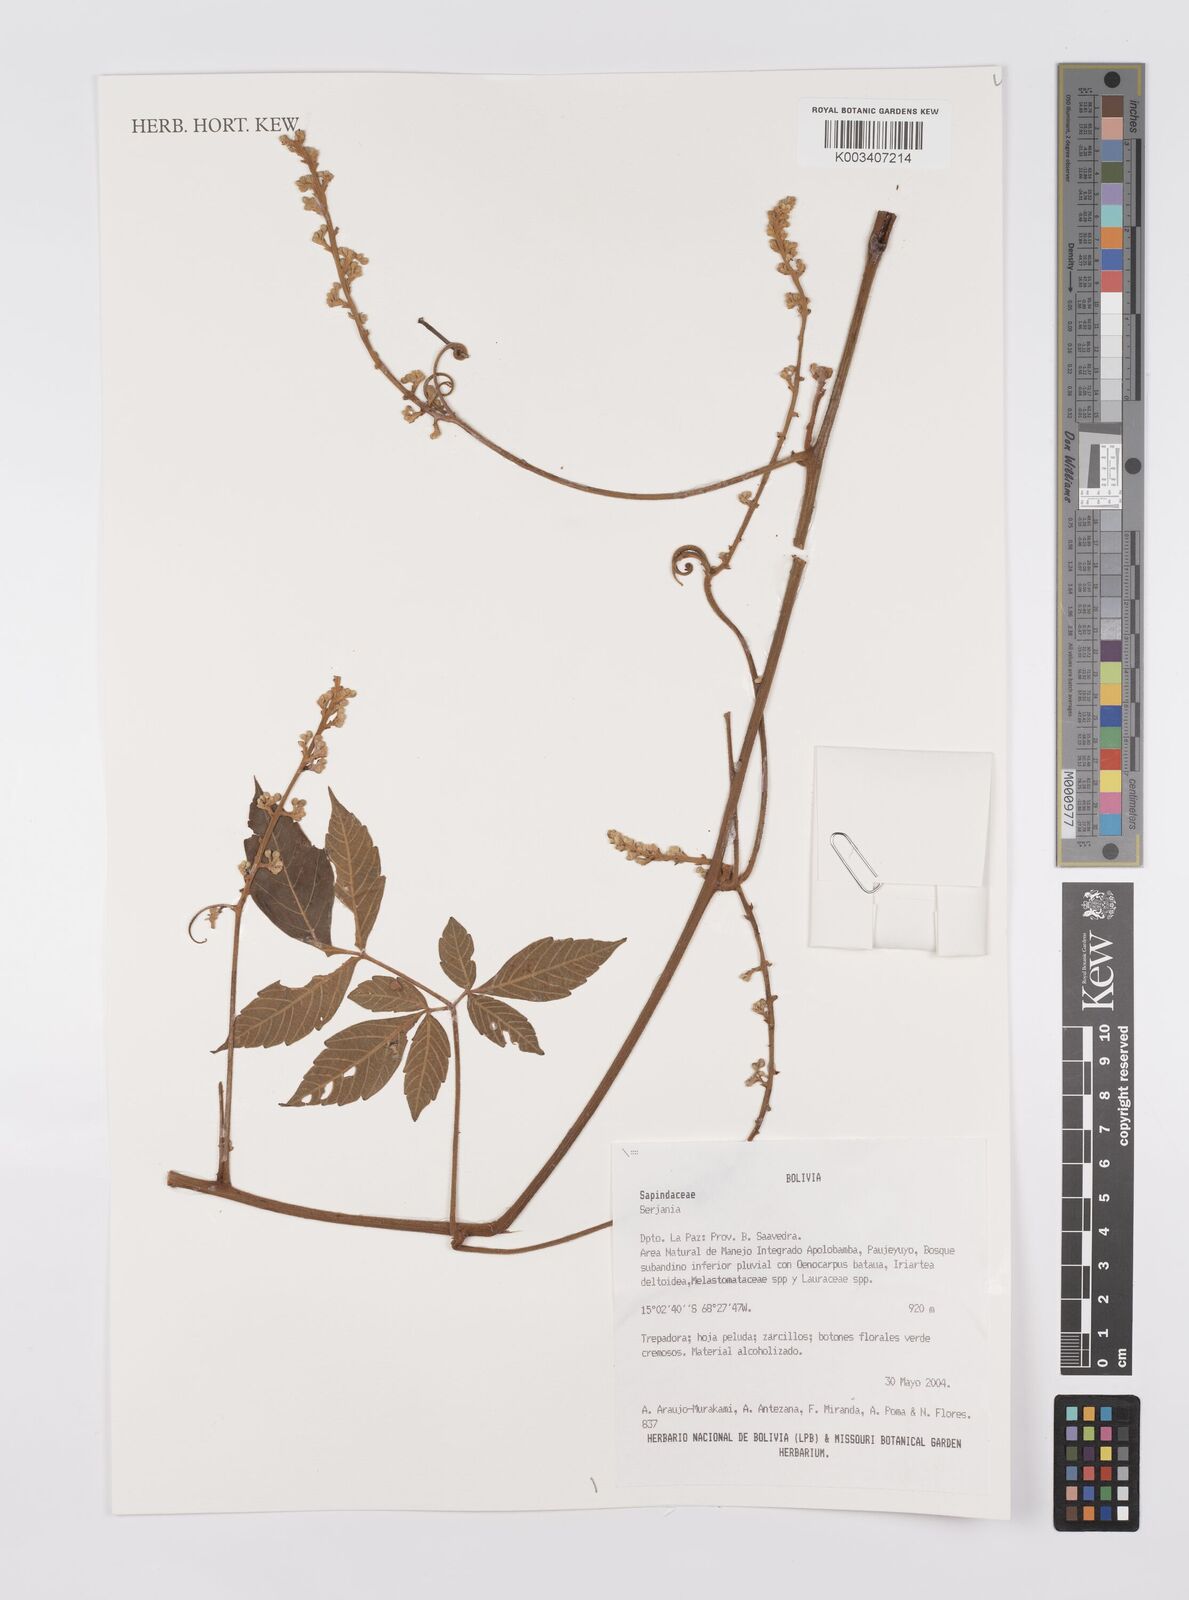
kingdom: Plantae
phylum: Tracheophyta
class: Magnoliopsida
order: Sapindales
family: Sapindaceae
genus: Serjania
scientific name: Serjania
